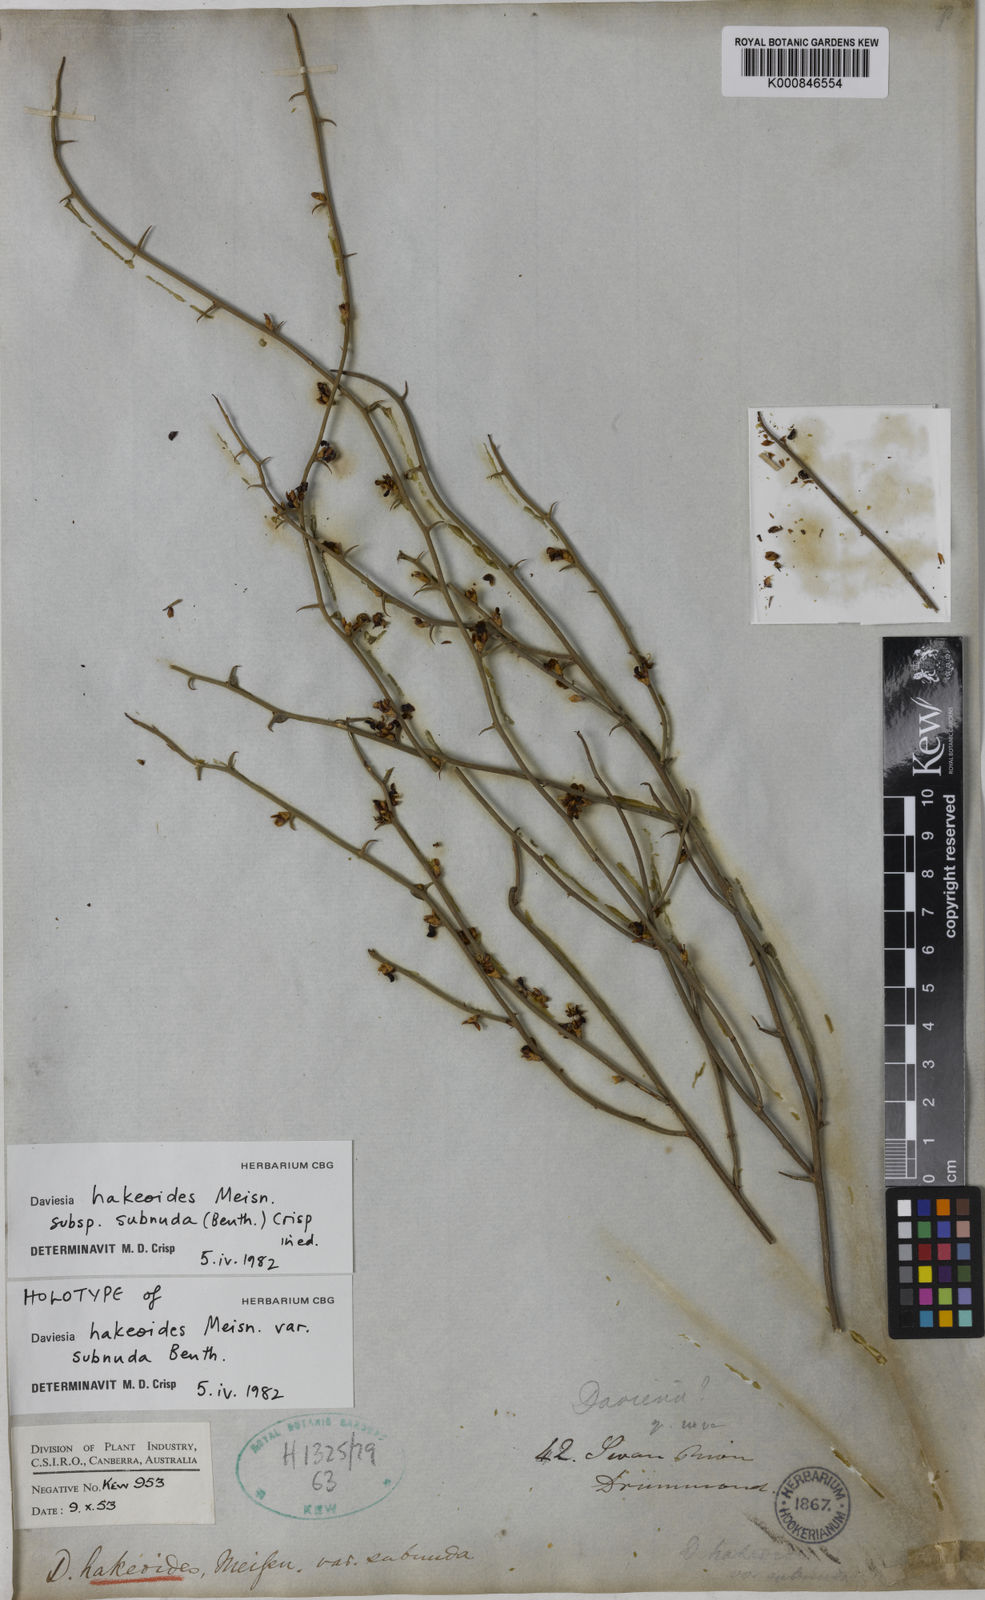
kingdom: Plantae
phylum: Tracheophyta
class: Magnoliopsida
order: Fabales
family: Fabaceae
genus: Daviesia
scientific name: Daviesia hakeoides
